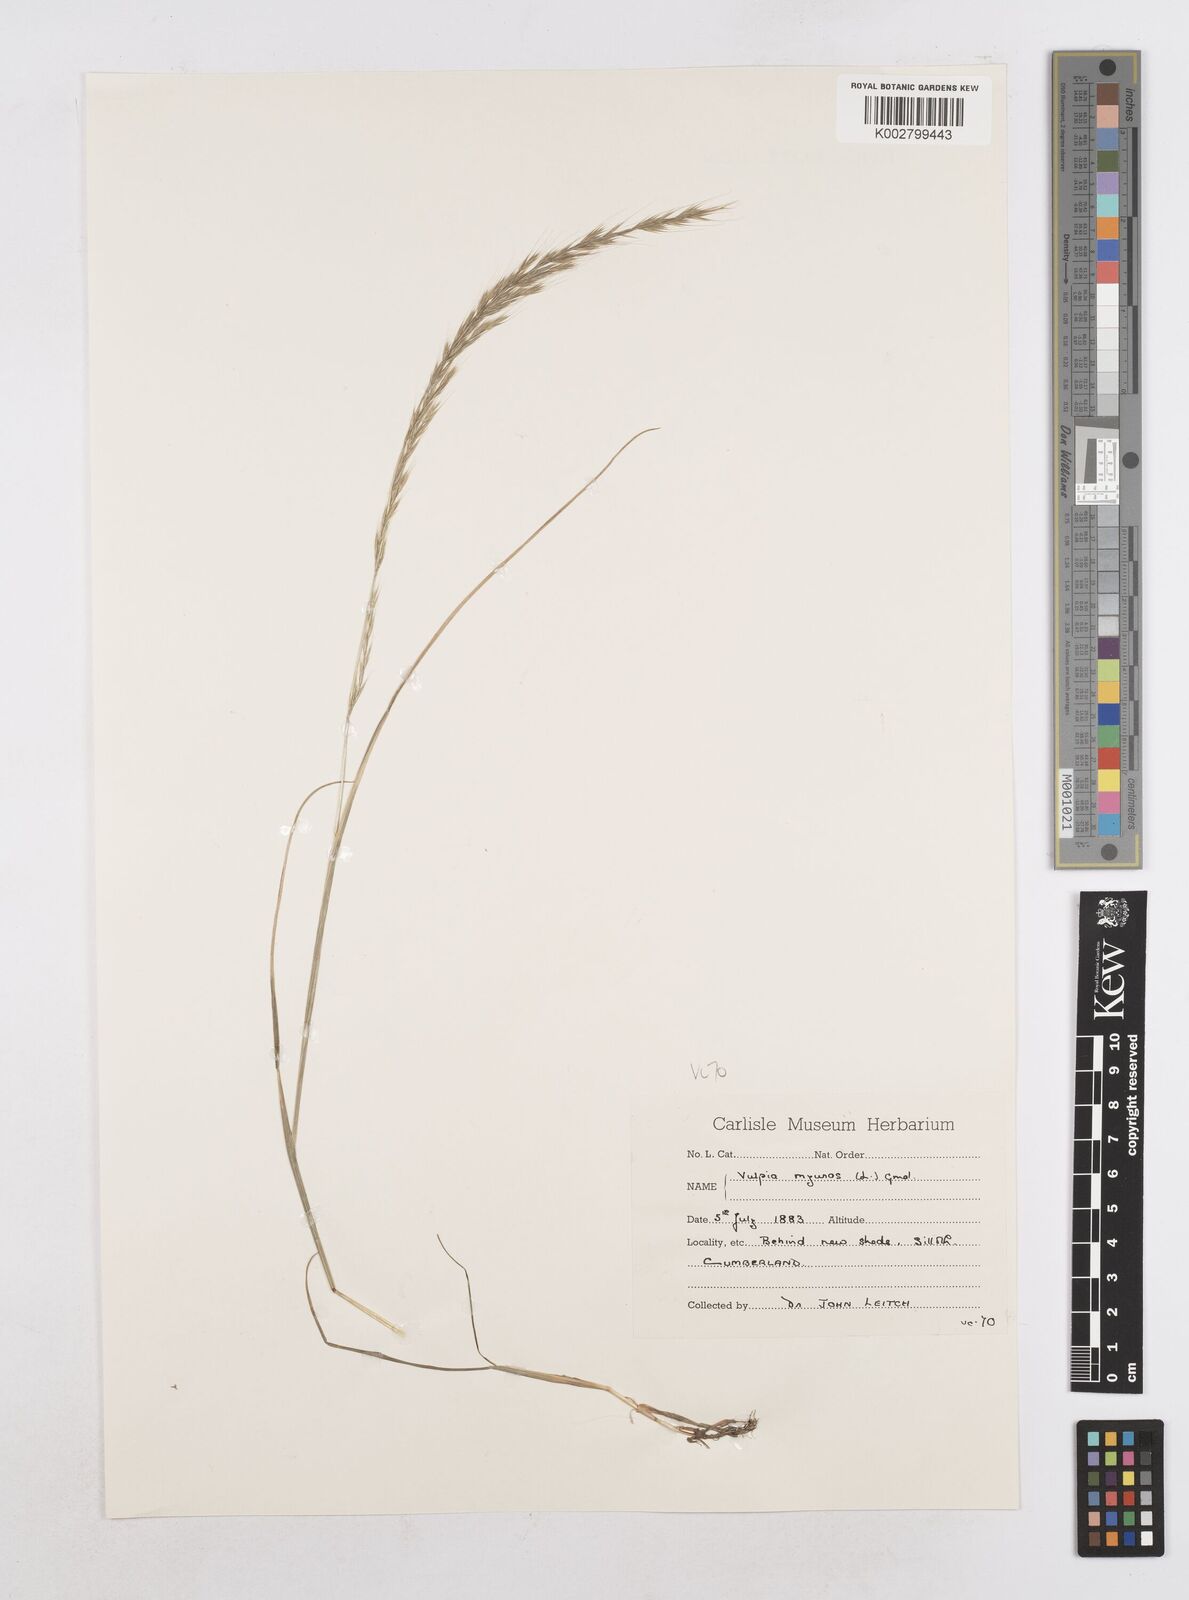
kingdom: Plantae
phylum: Tracheophyta
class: Liliopsida
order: Poales
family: Poaceae
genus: Festuca
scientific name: Festuca myuros
